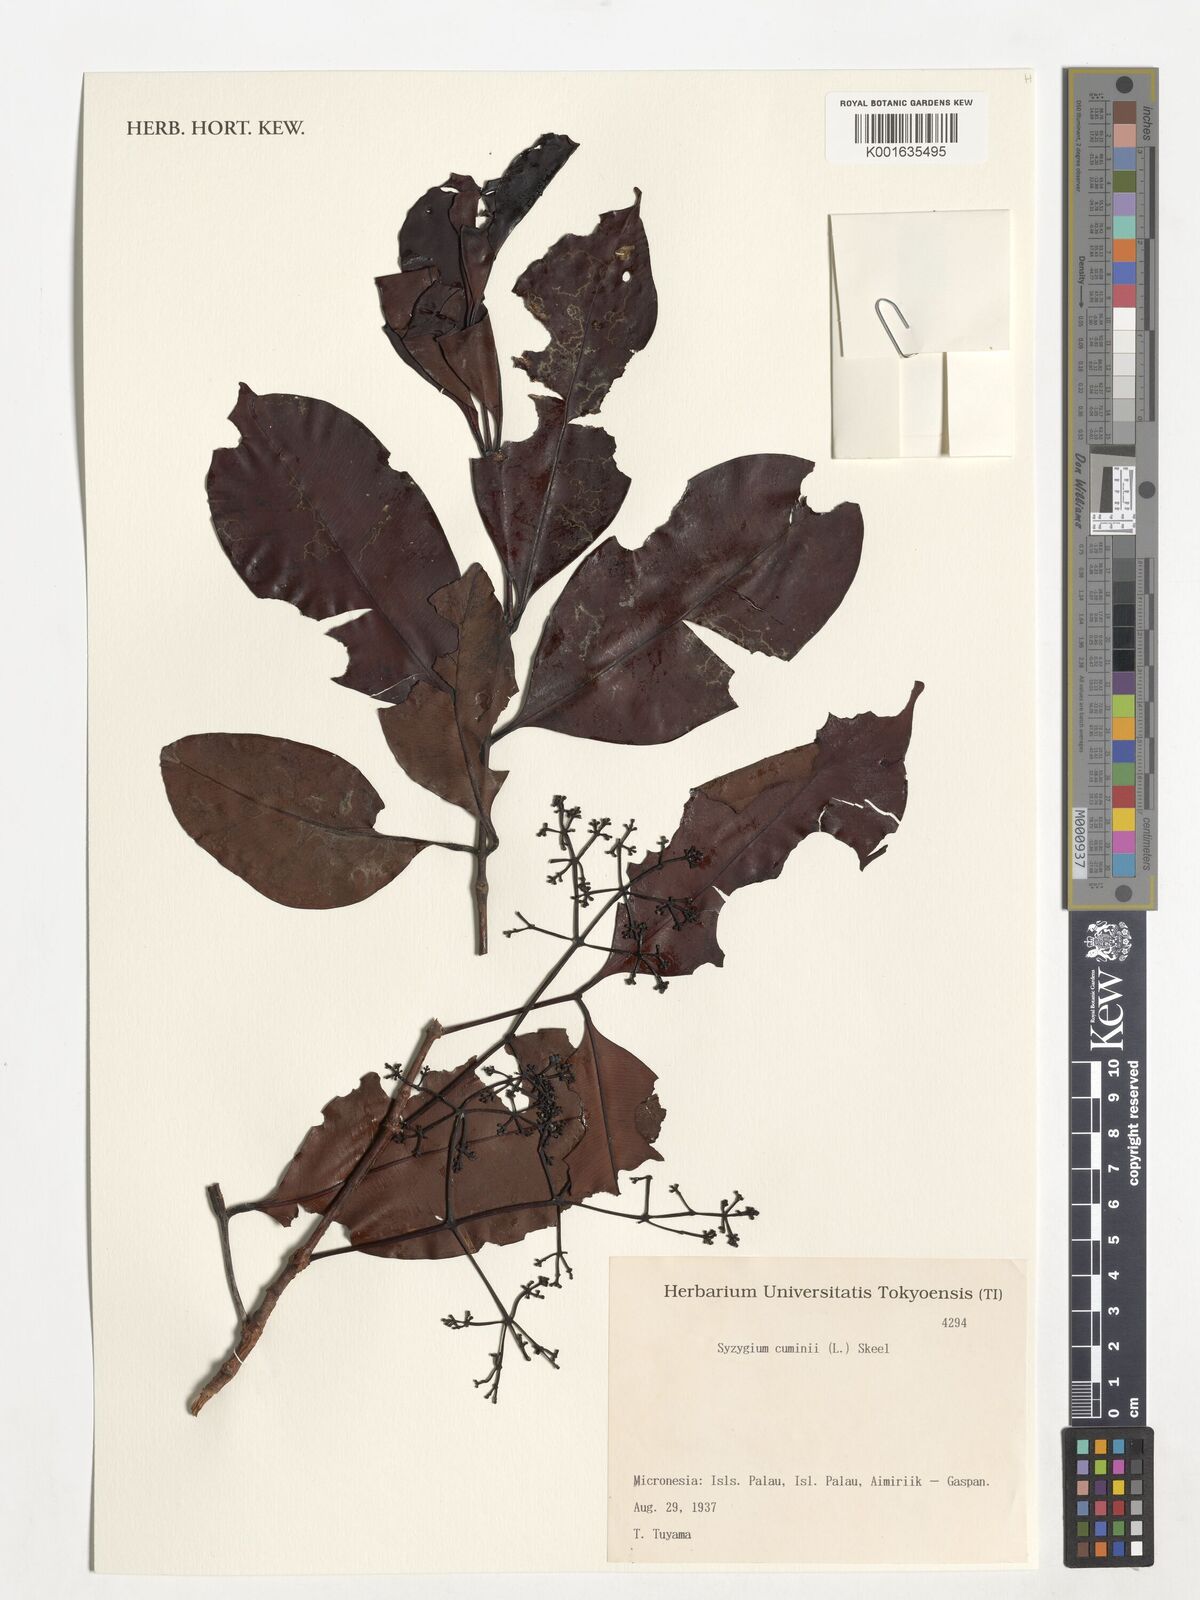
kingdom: Plantae
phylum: Tracheophyta
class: Magnoliopsida
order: Myrtales
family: Myrtaceae
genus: Syzygium
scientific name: Syzygium cumini
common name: Java plum
